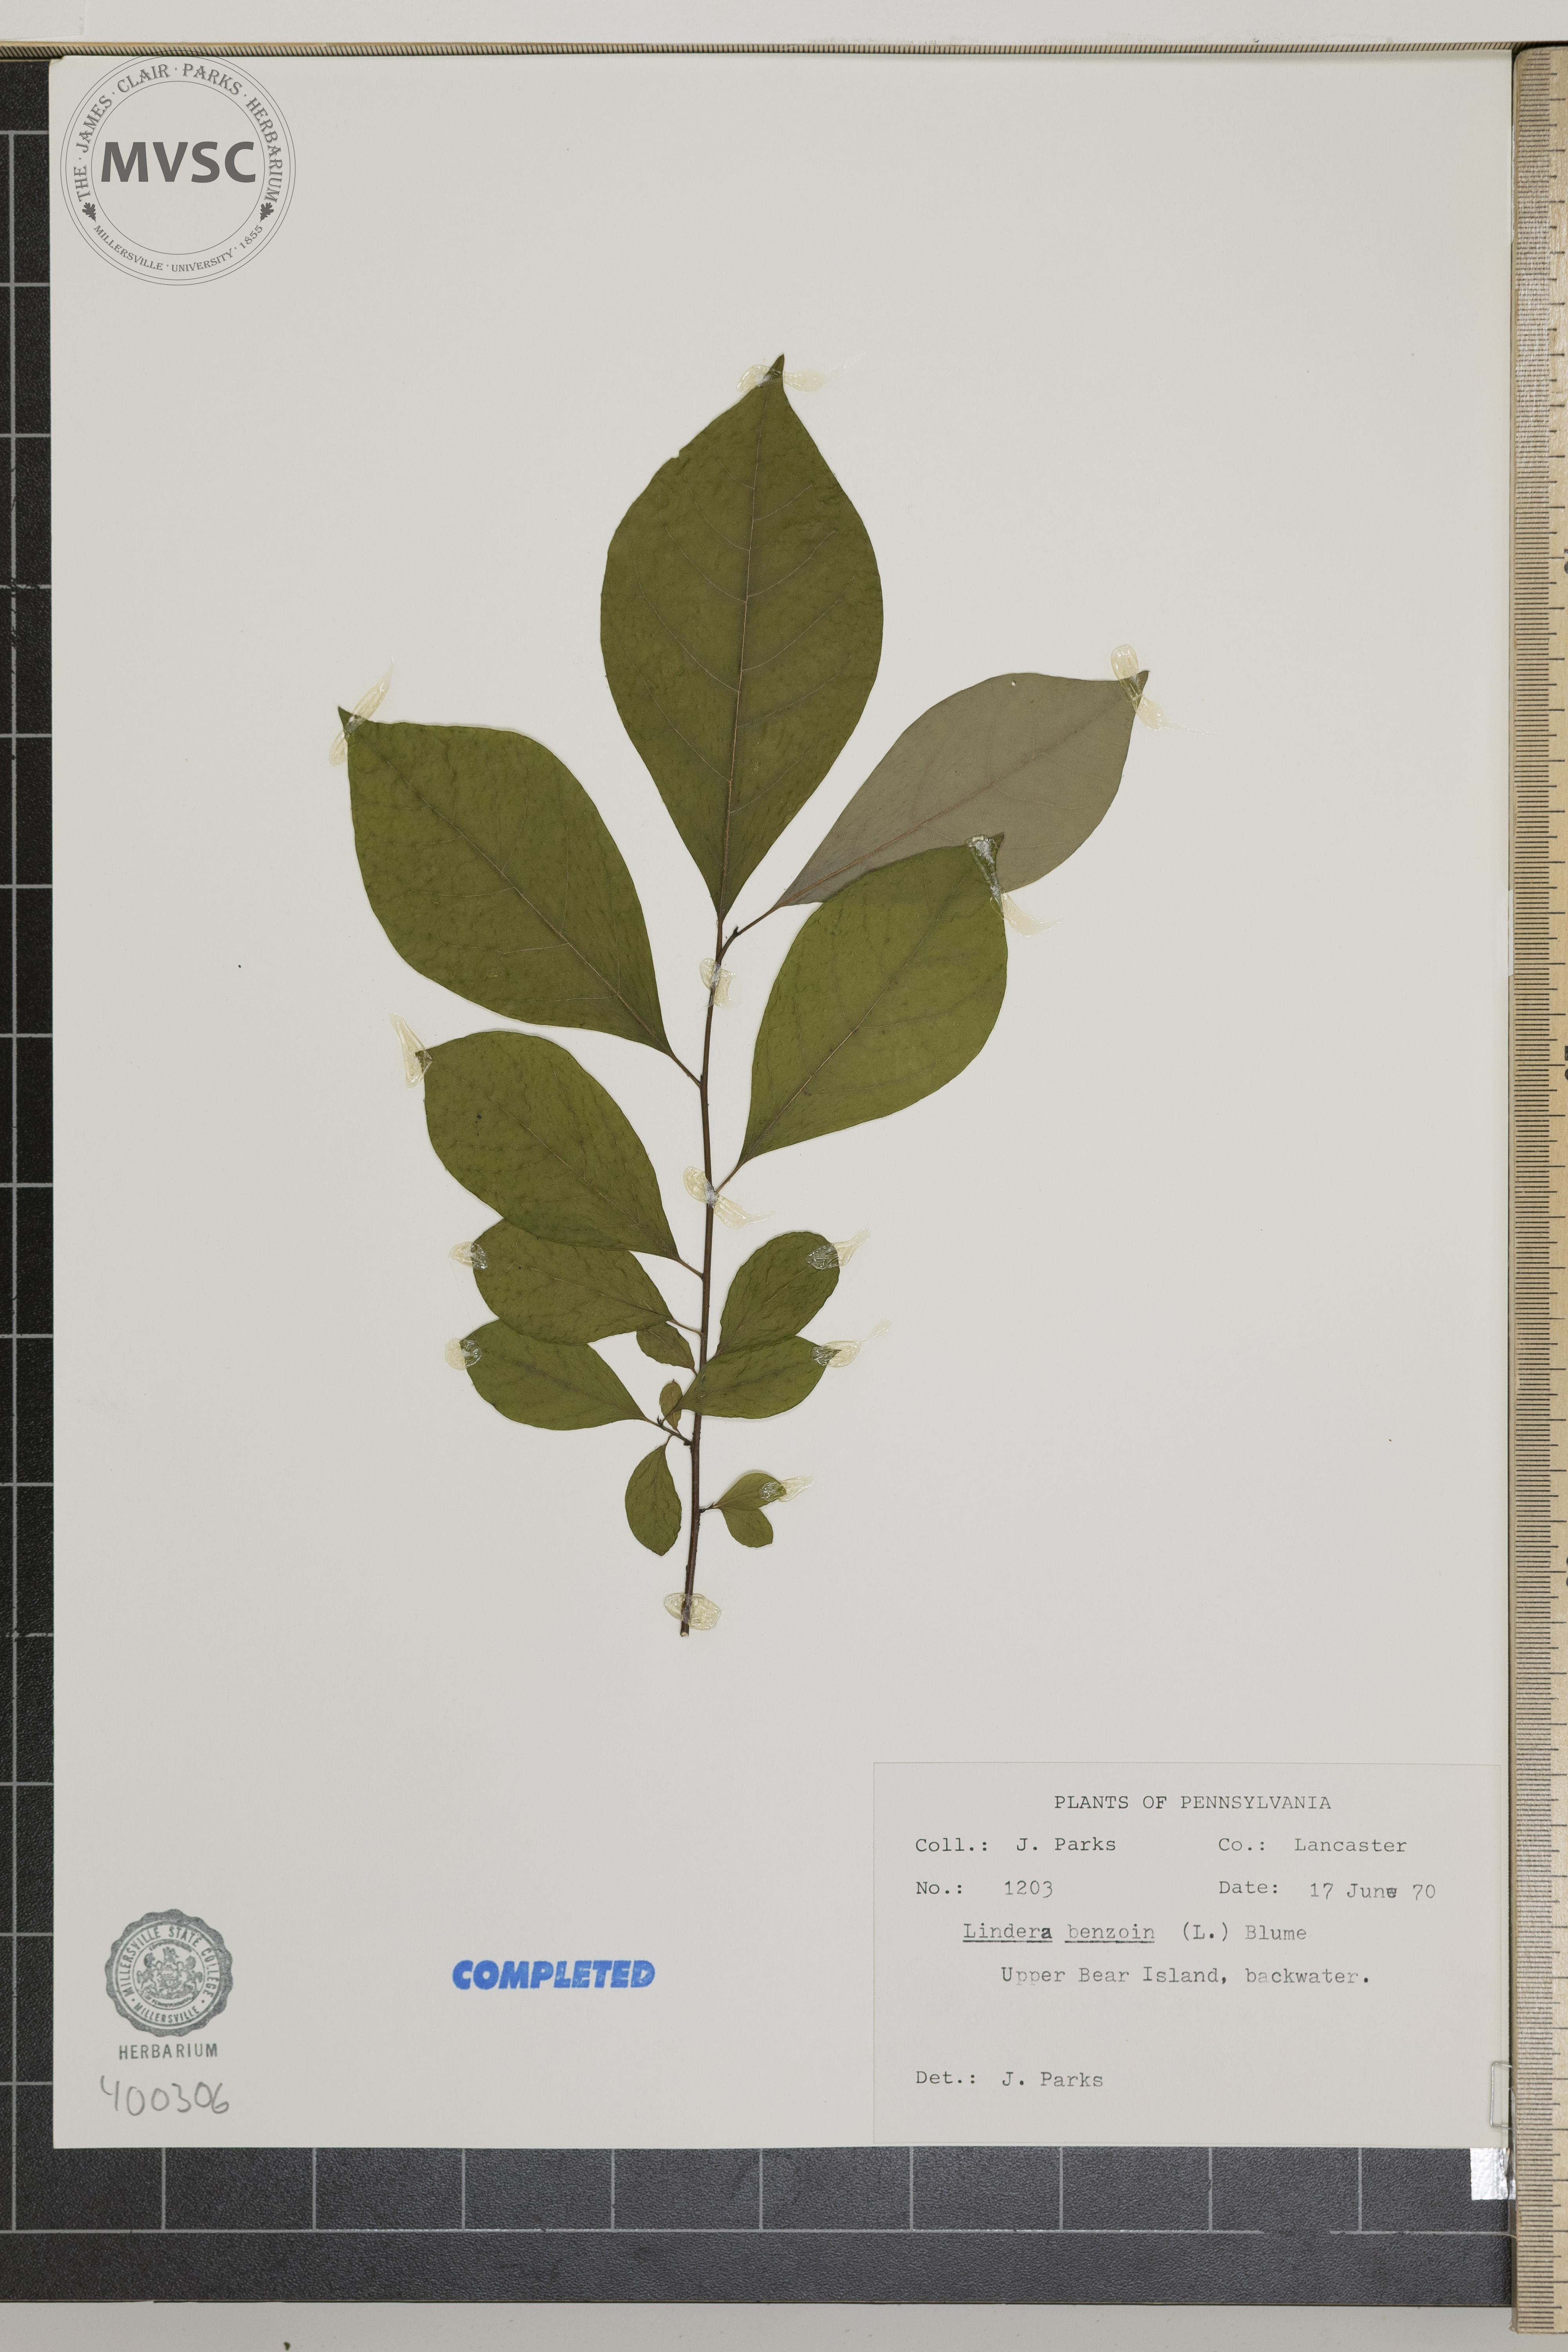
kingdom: Plantae
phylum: Tracheophyta
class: Magnoliopsida
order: Laurales
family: Lauraceae
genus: Lindera
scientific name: Lindera benzoin
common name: spicebush
